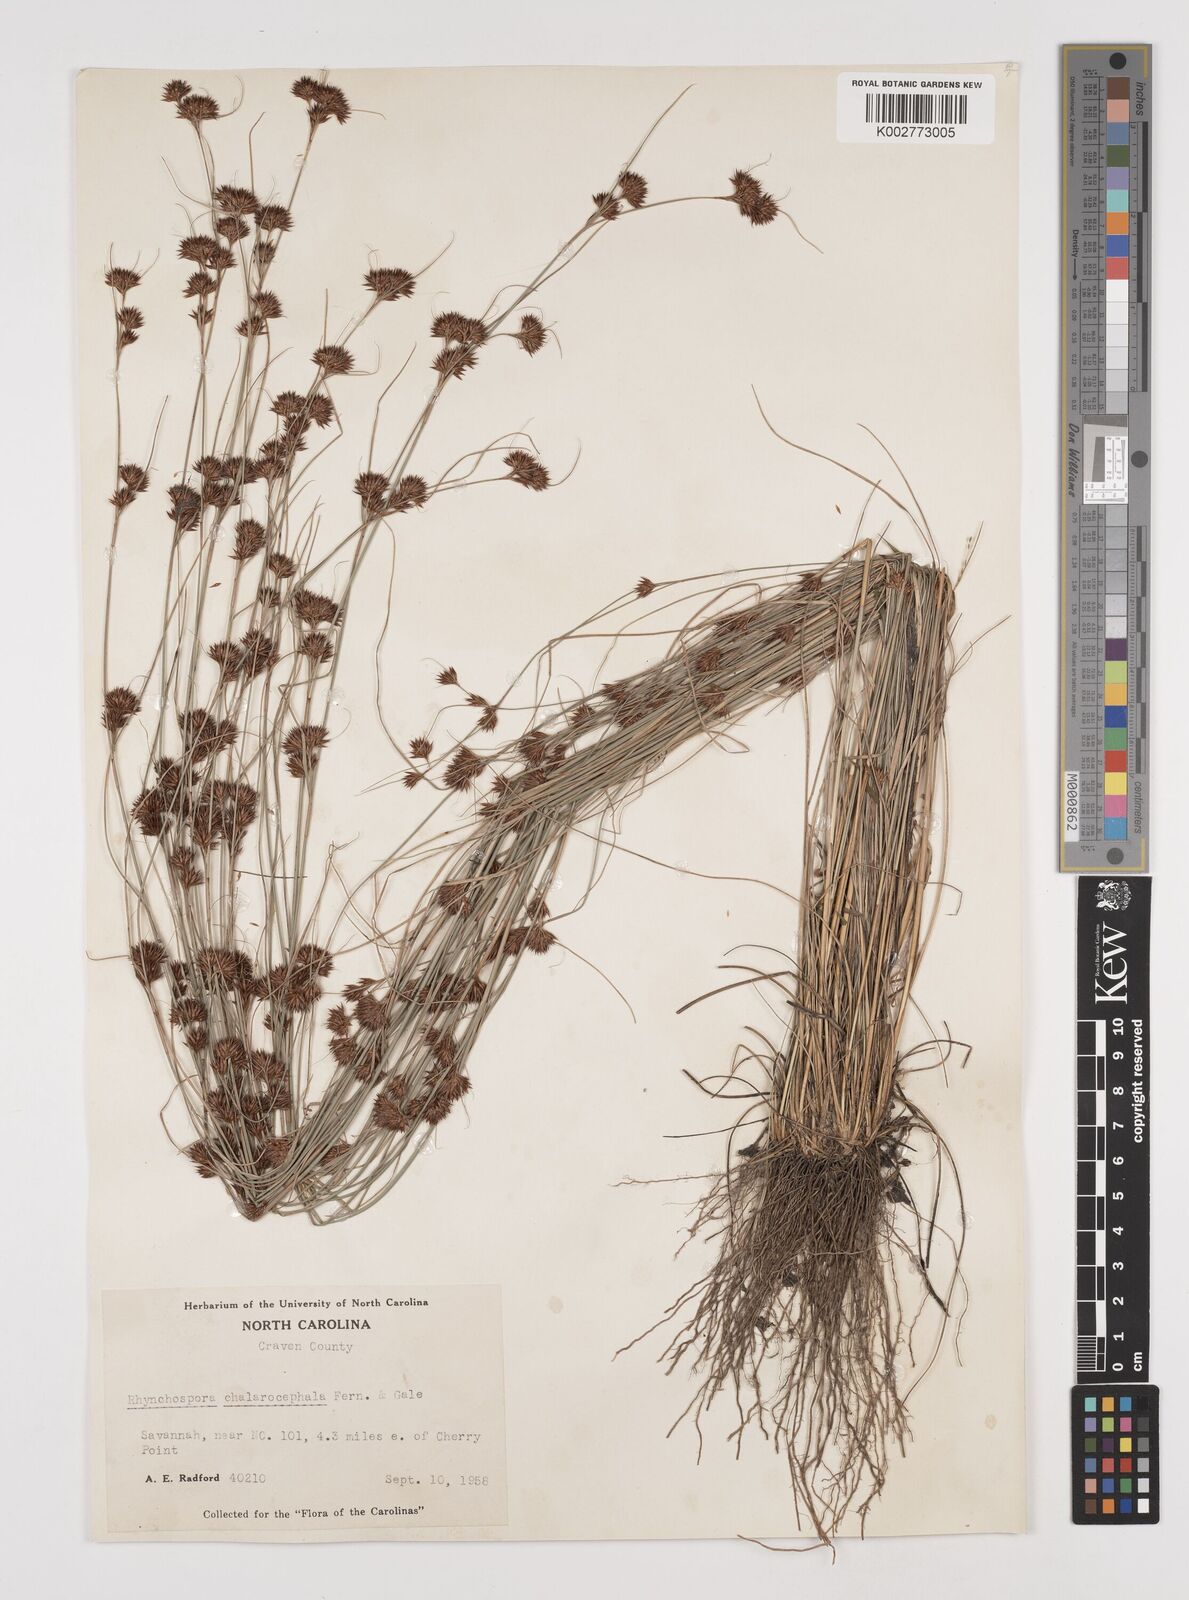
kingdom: Plantae
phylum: Tracheophyta
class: Liliopsida
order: Poales
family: Cyperaceae
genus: Rhynchospora
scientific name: Rhynchospora chalarocephala
